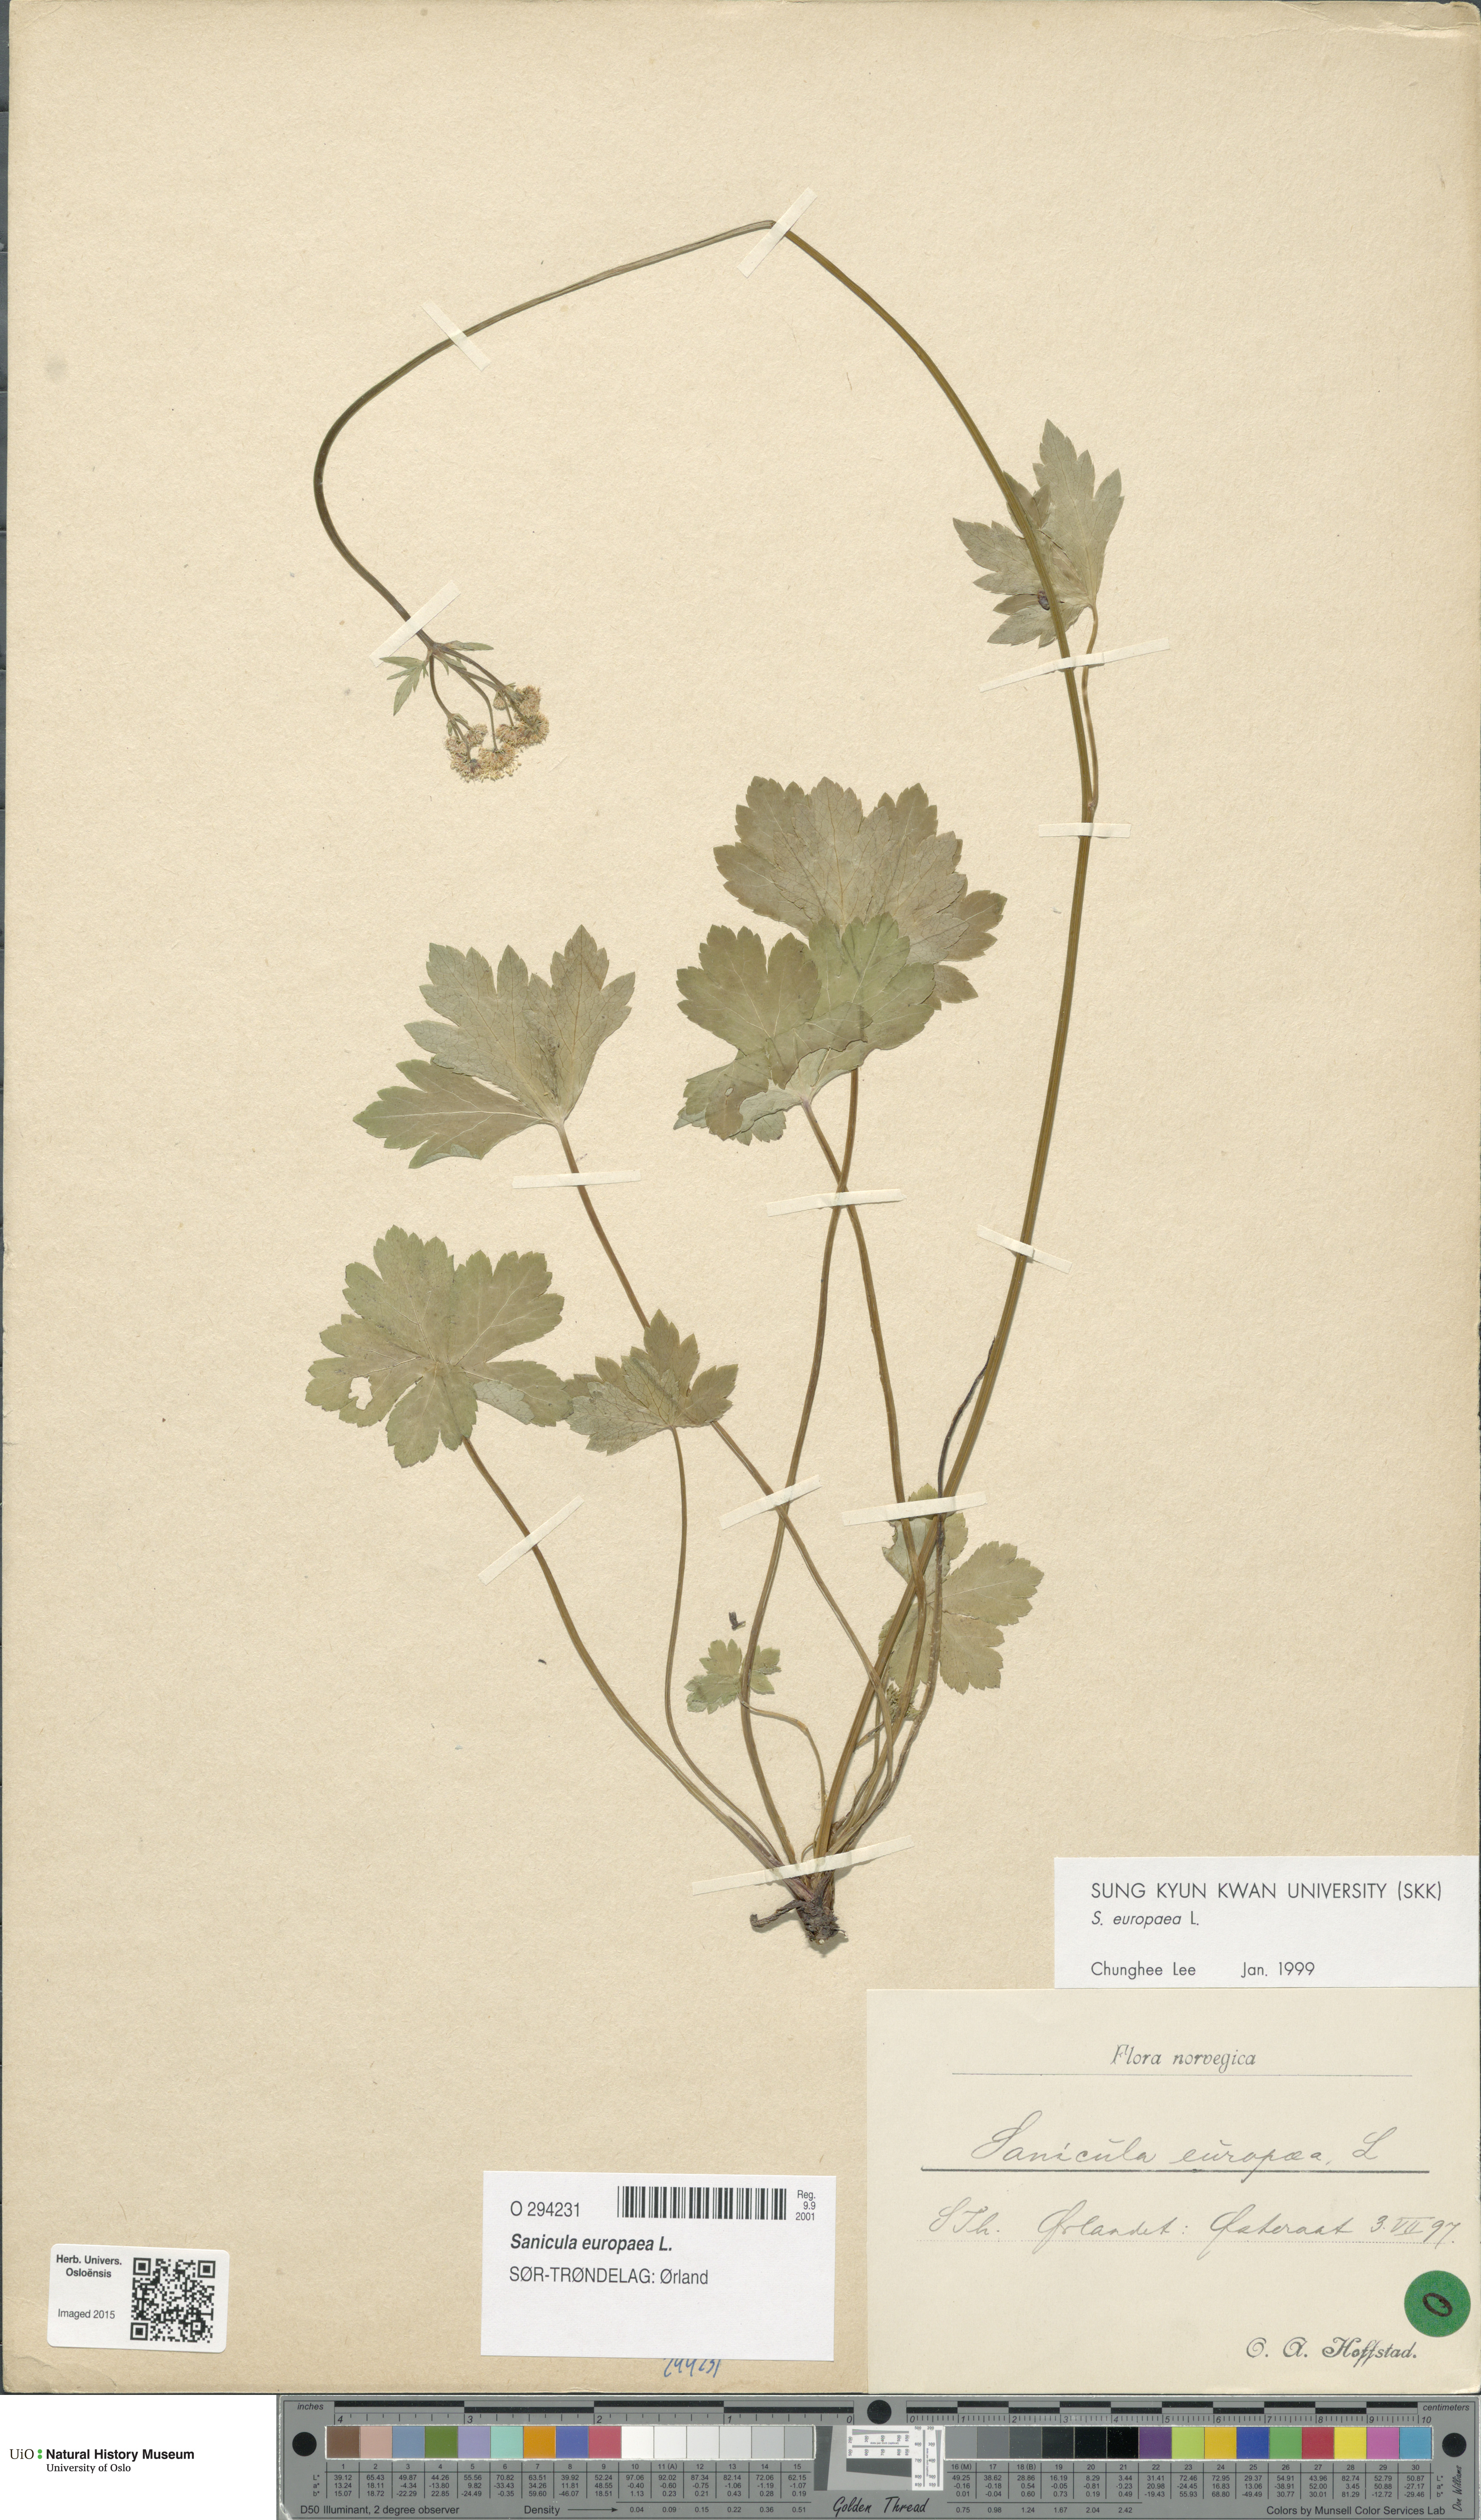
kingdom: Plantae
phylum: Tracheophyta
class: Magnoliopsida
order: Apiales
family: Apiaceae
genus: Sanicula
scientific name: Sanicula europaea
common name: Sanicle
